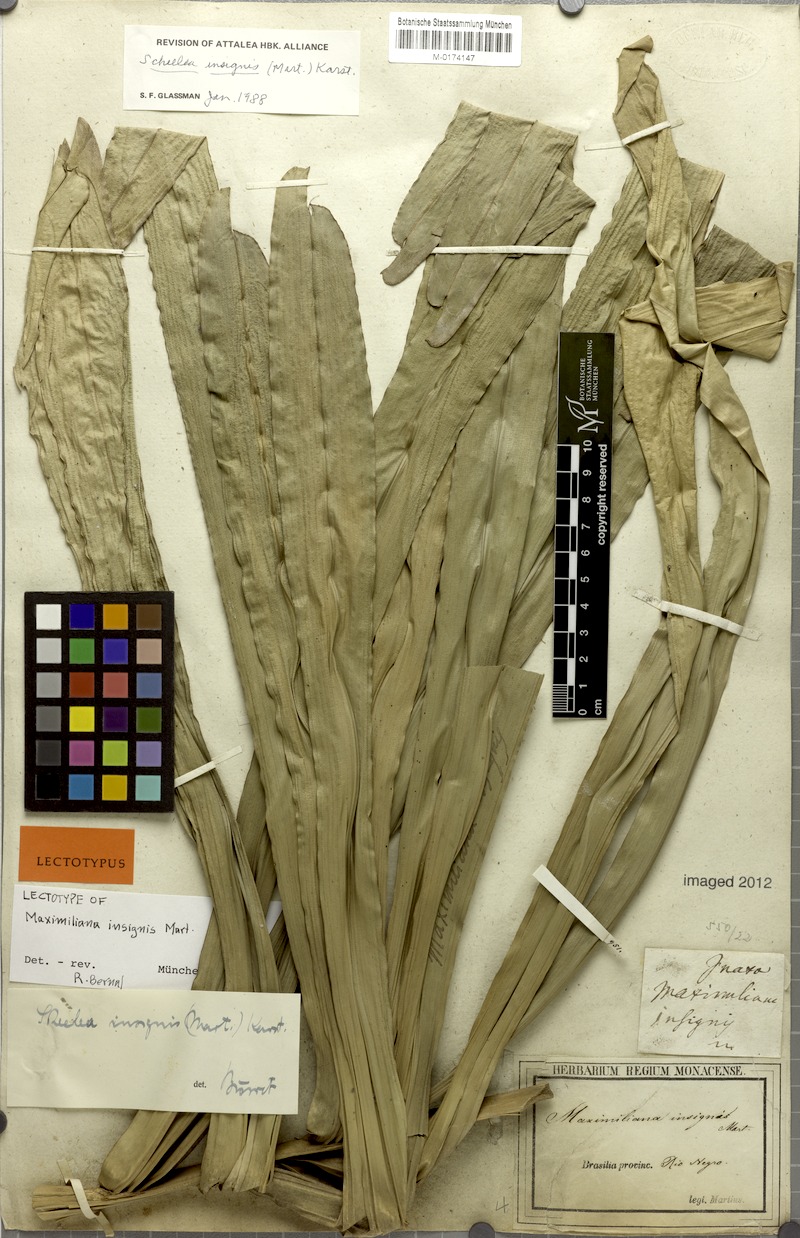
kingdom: Plantae
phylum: Tracheophyta
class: Liliopsida
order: Arecales
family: Arecaceae
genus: Attalea
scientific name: Attalea insignis
